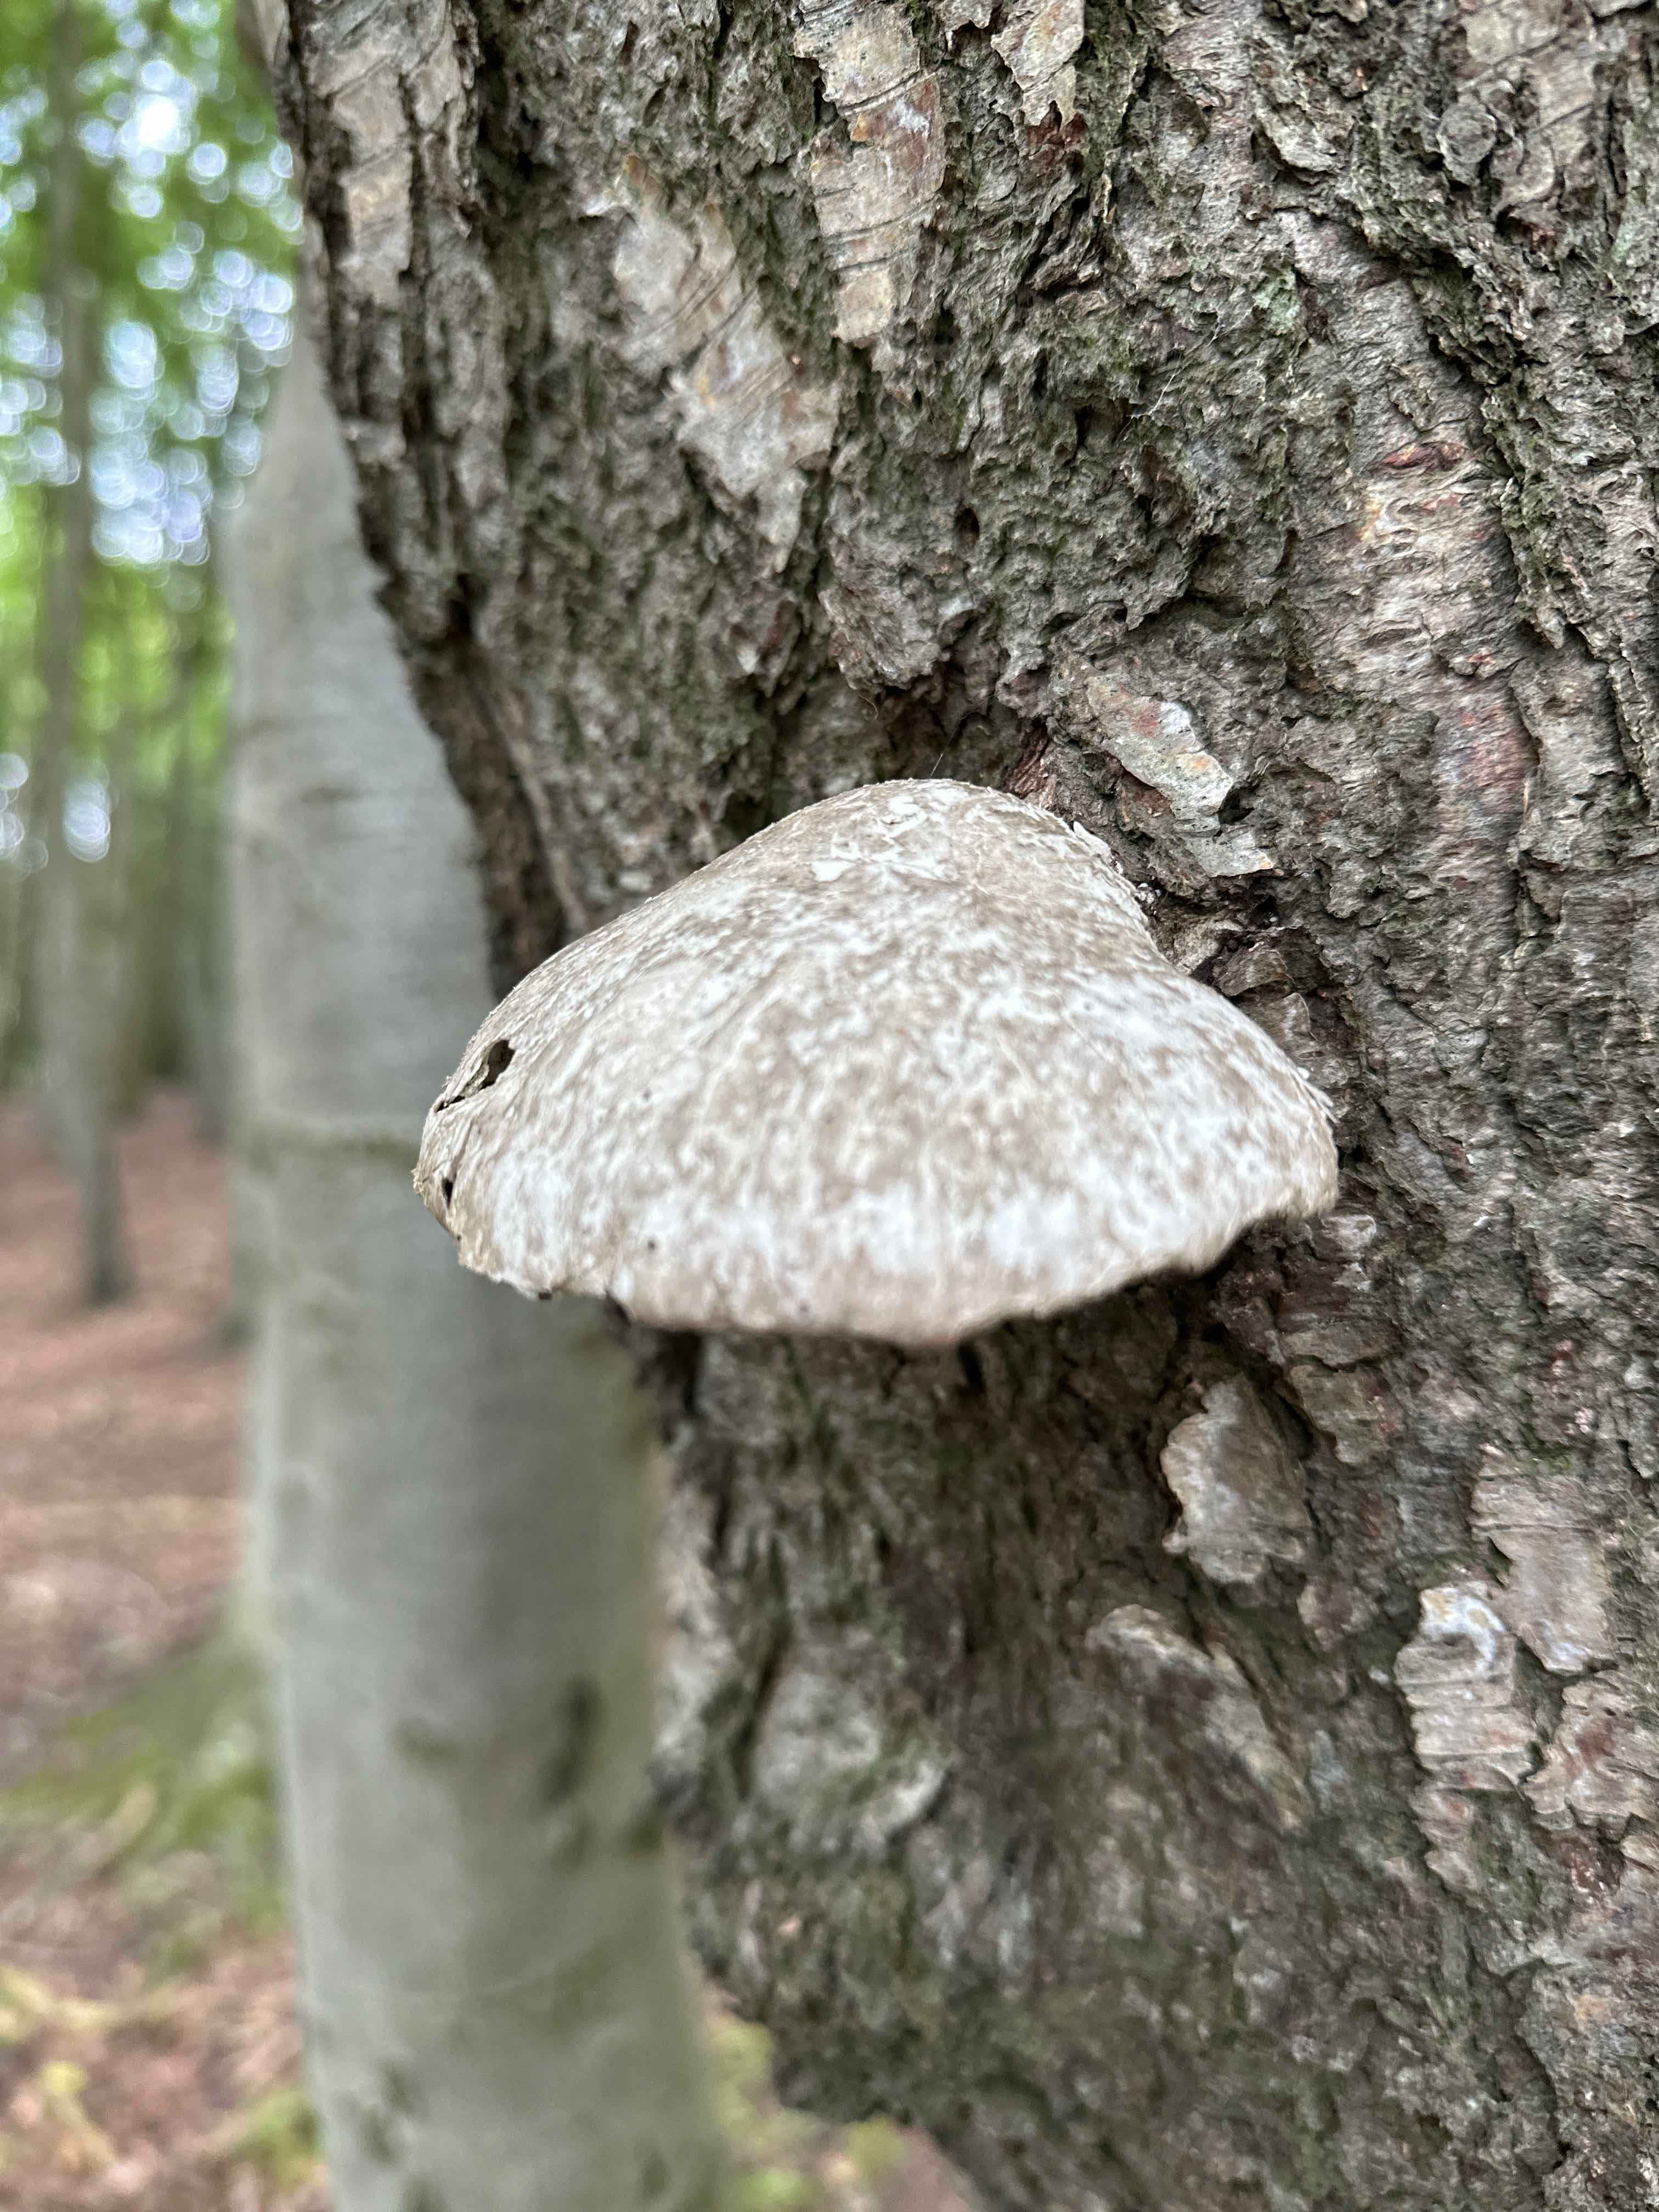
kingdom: Fungi
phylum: Basidiomycota
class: Agaricomycetes
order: Polyporales
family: Fomitopsidaceae
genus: Fomitopsis
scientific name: Fomitopsis betulina
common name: birkeporesvamp
